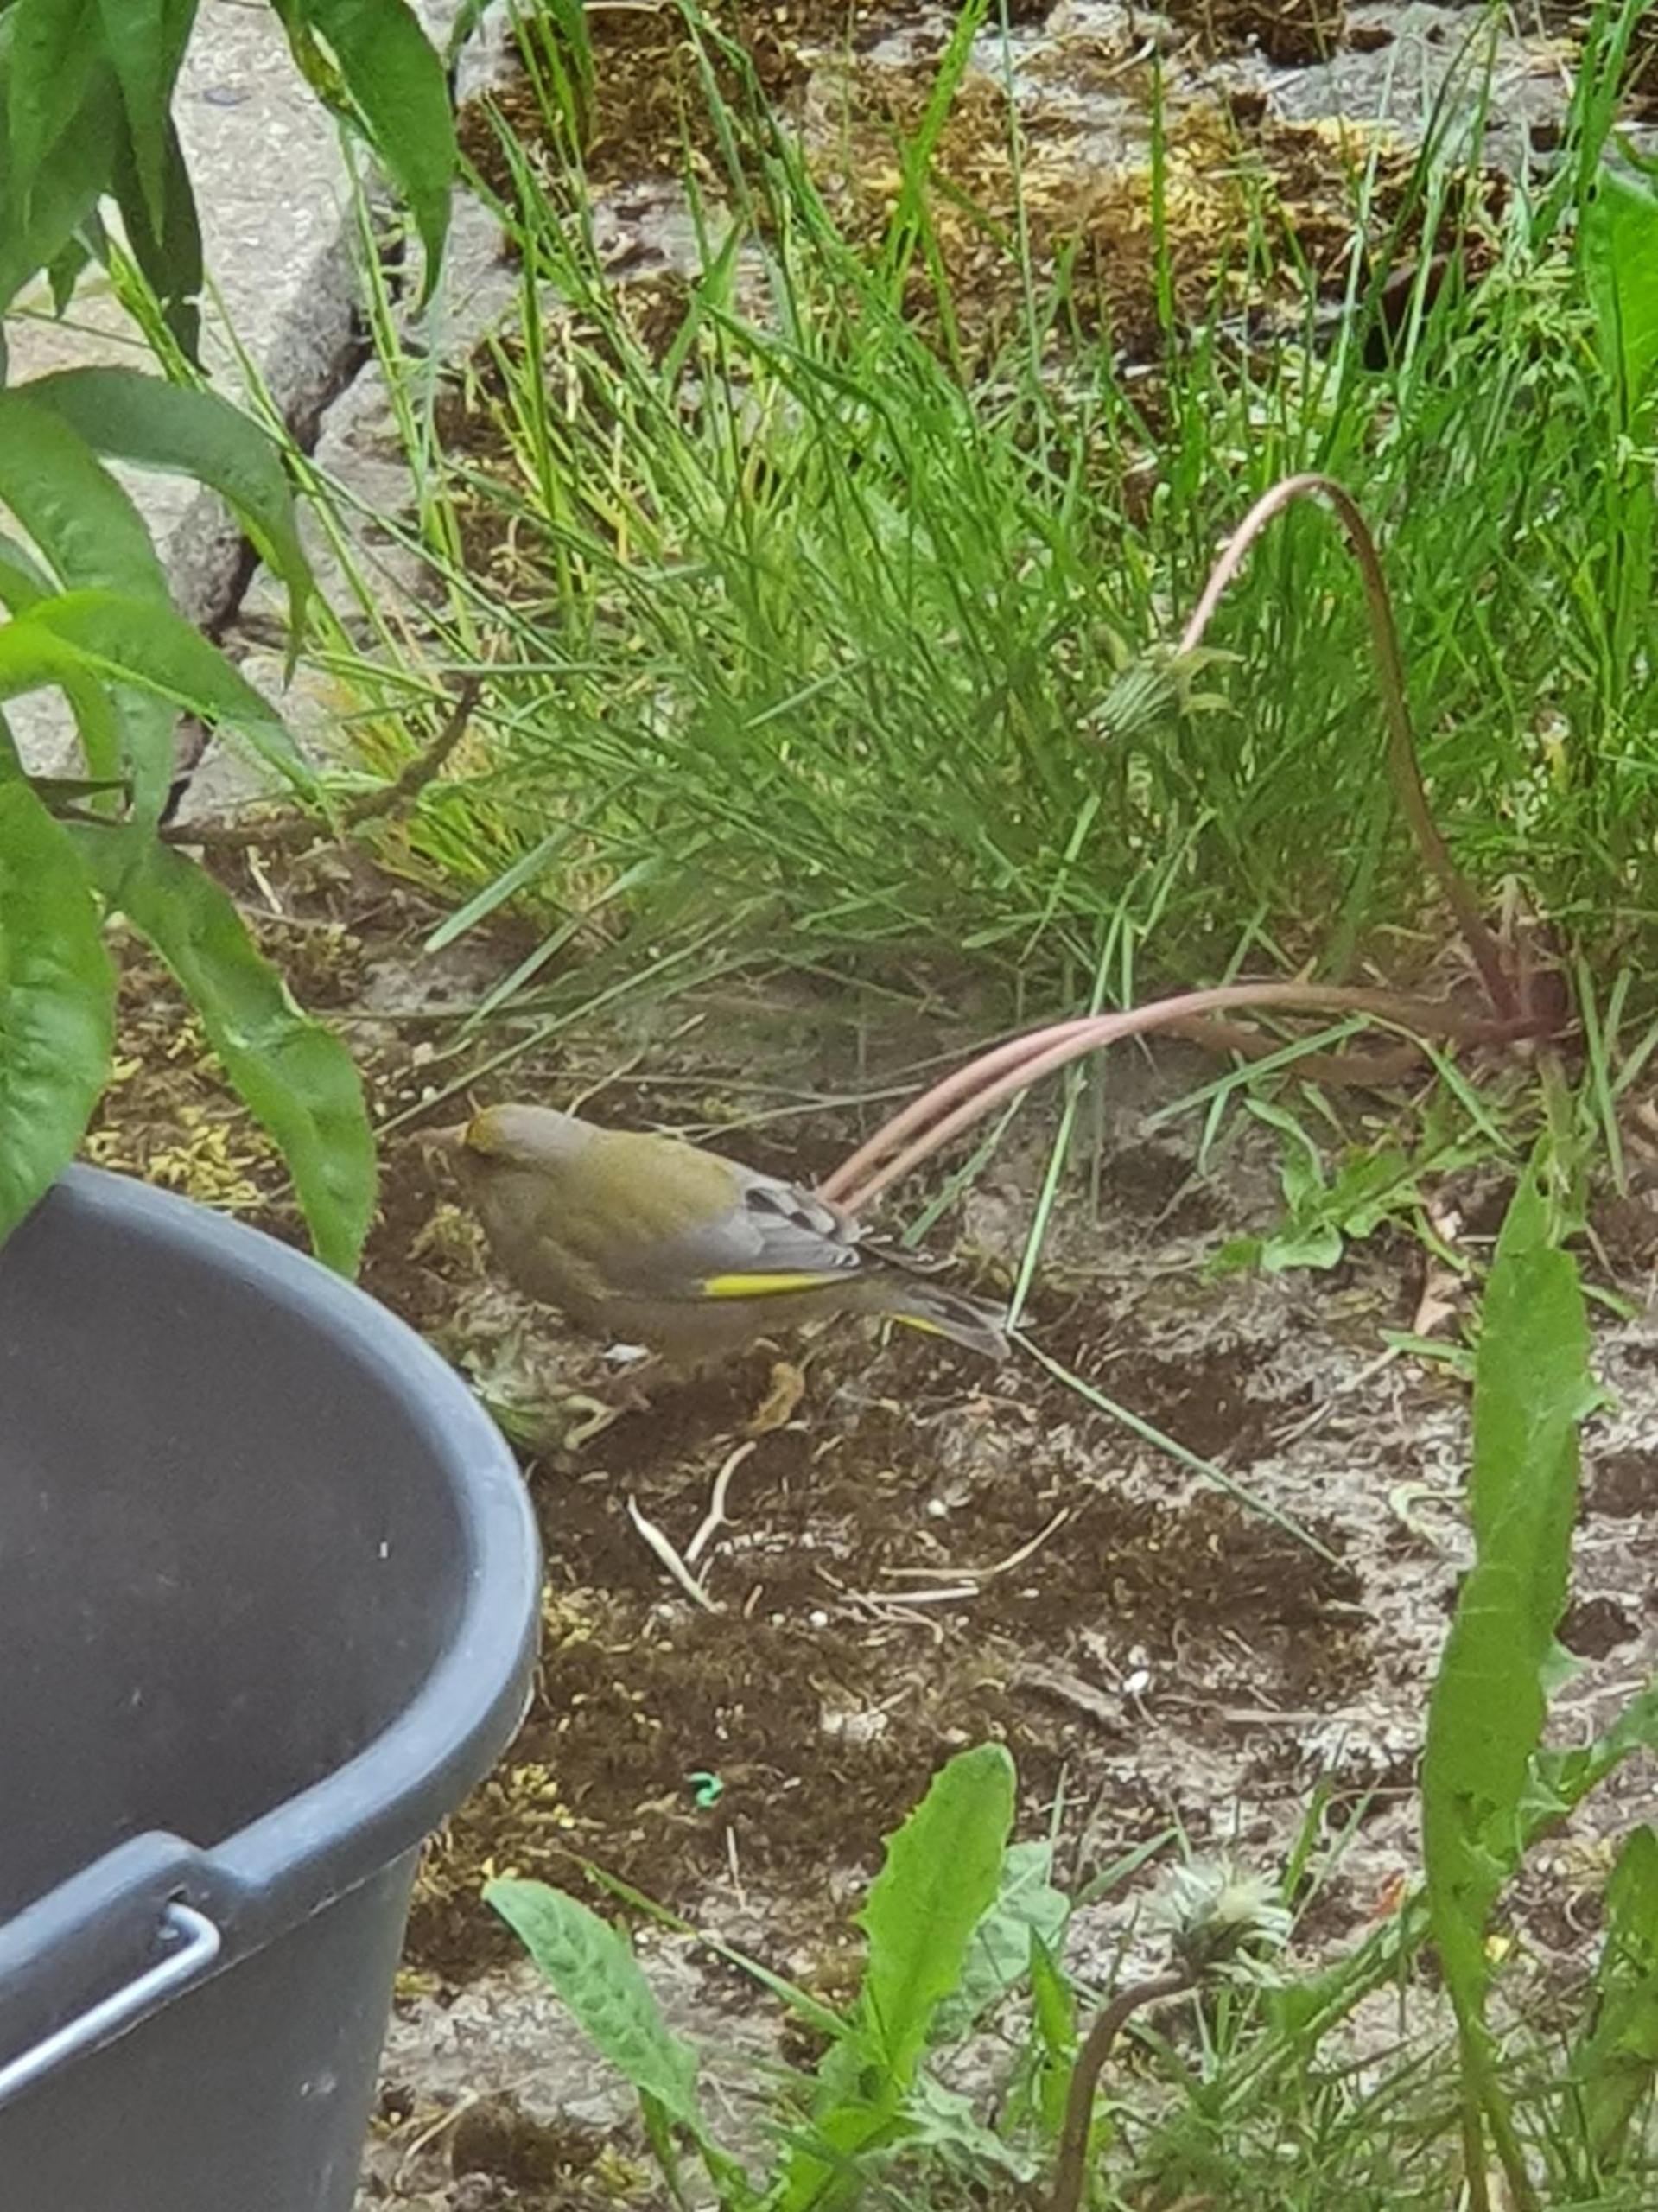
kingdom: Plantae
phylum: Tracheophyta
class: Liliopsida
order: Poales
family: Poaceae
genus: Chloris
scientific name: Chloris chloris
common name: Grønirisk
